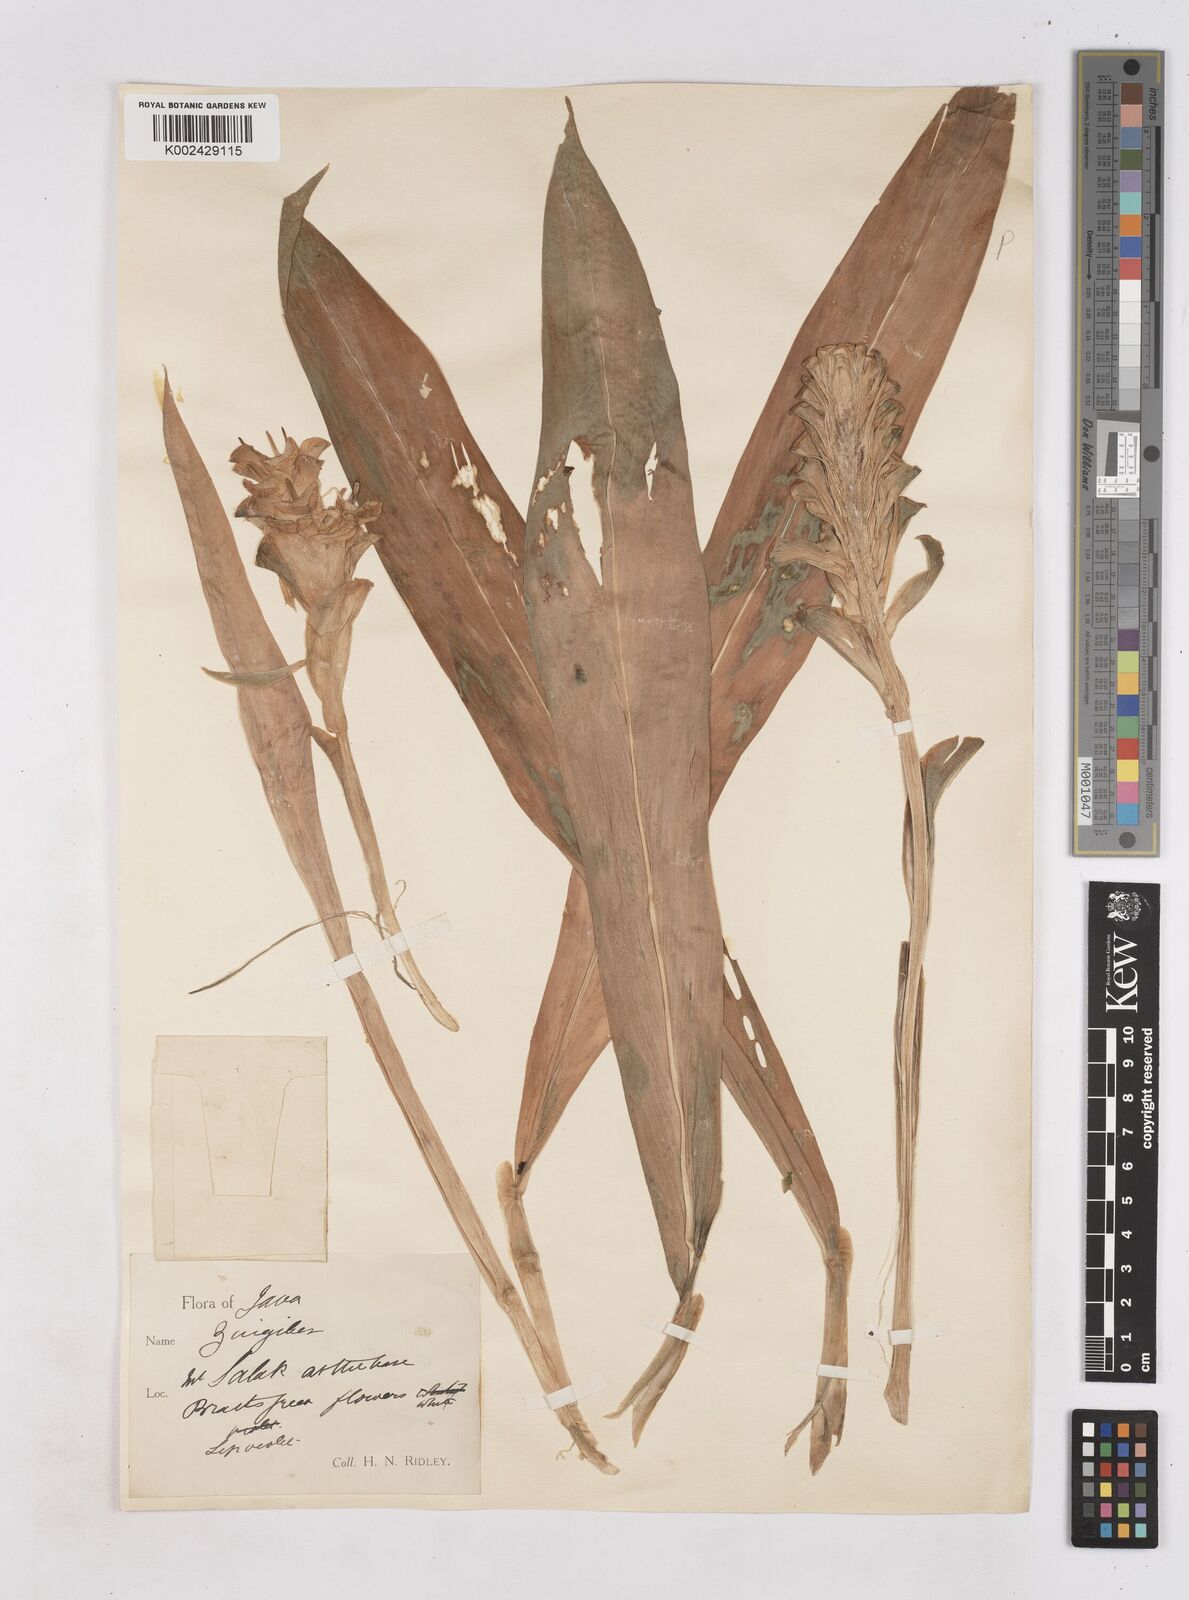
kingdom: Plantae
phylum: Tracheophyta
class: Liliopsida
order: Zingiberales
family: Zingiberaceae
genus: Zingiber
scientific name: Zingiber inflexum
